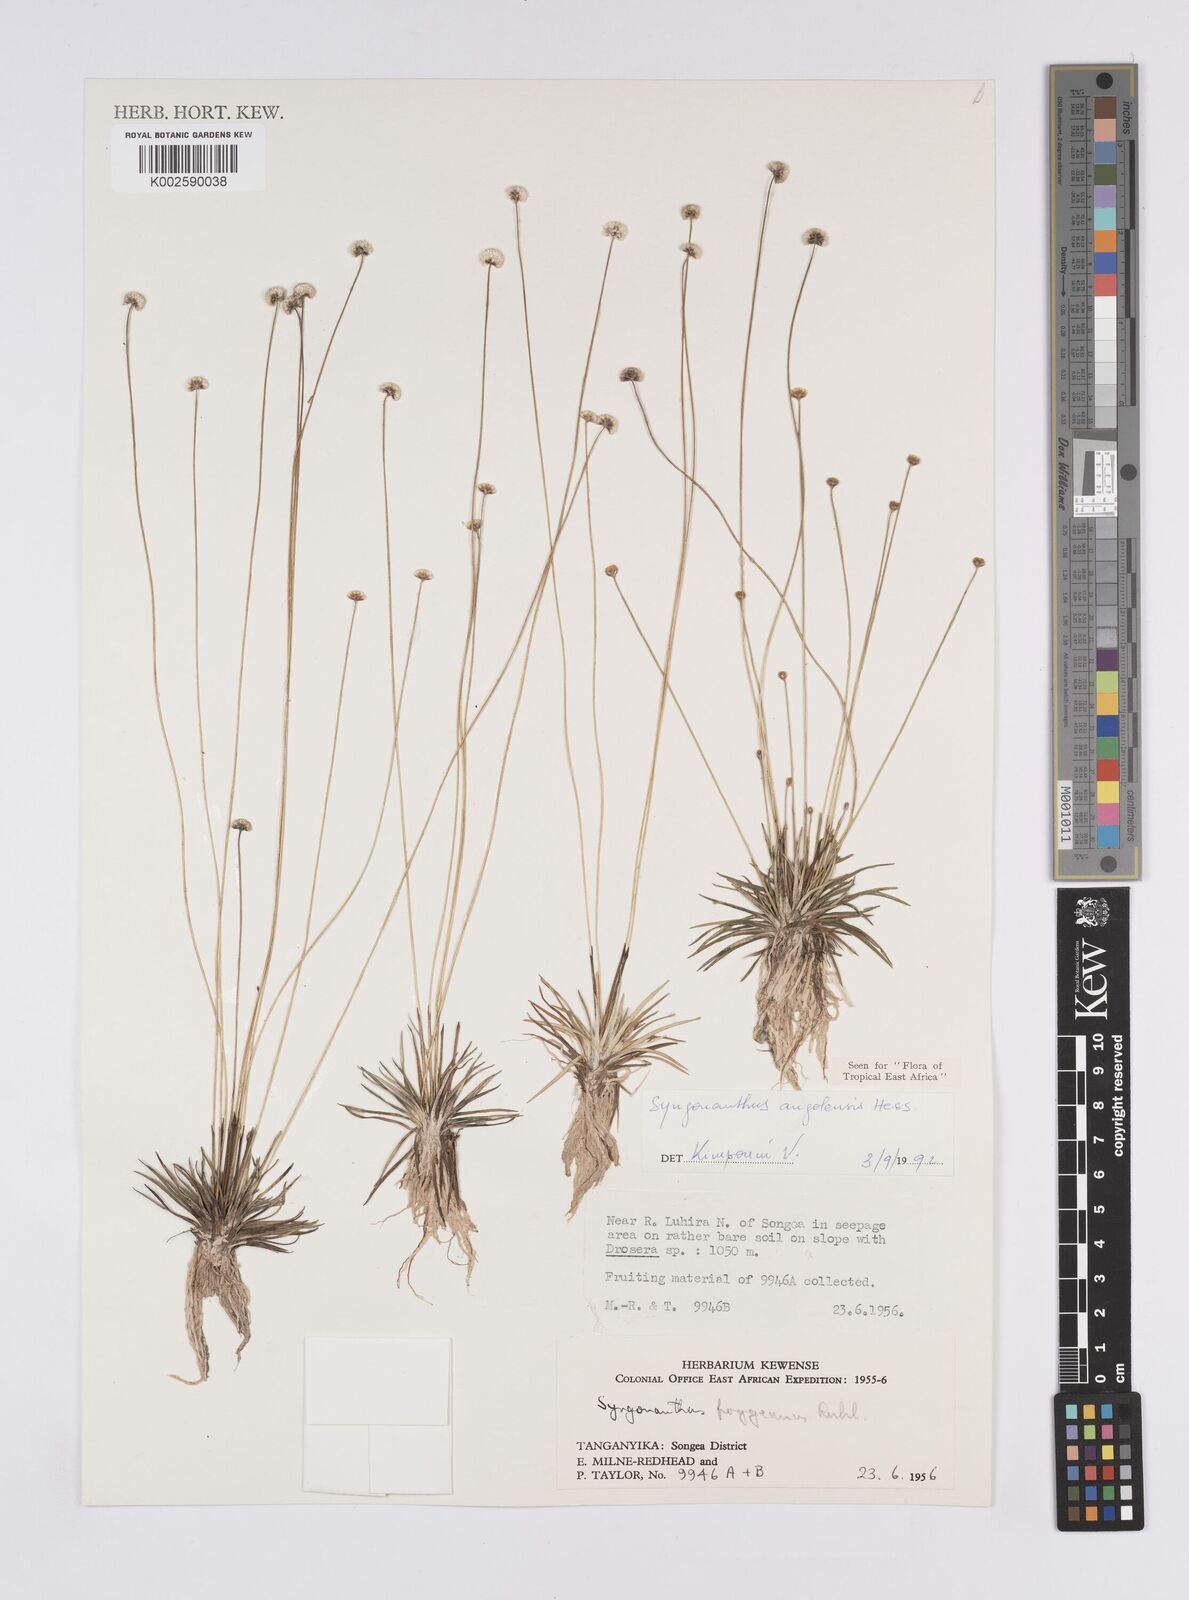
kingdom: Plantae
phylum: Tracheophyta
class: Liliopsida
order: Poales
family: Eriocaulaceae
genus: Syngonanthus
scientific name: Syngonanthus angolensis
